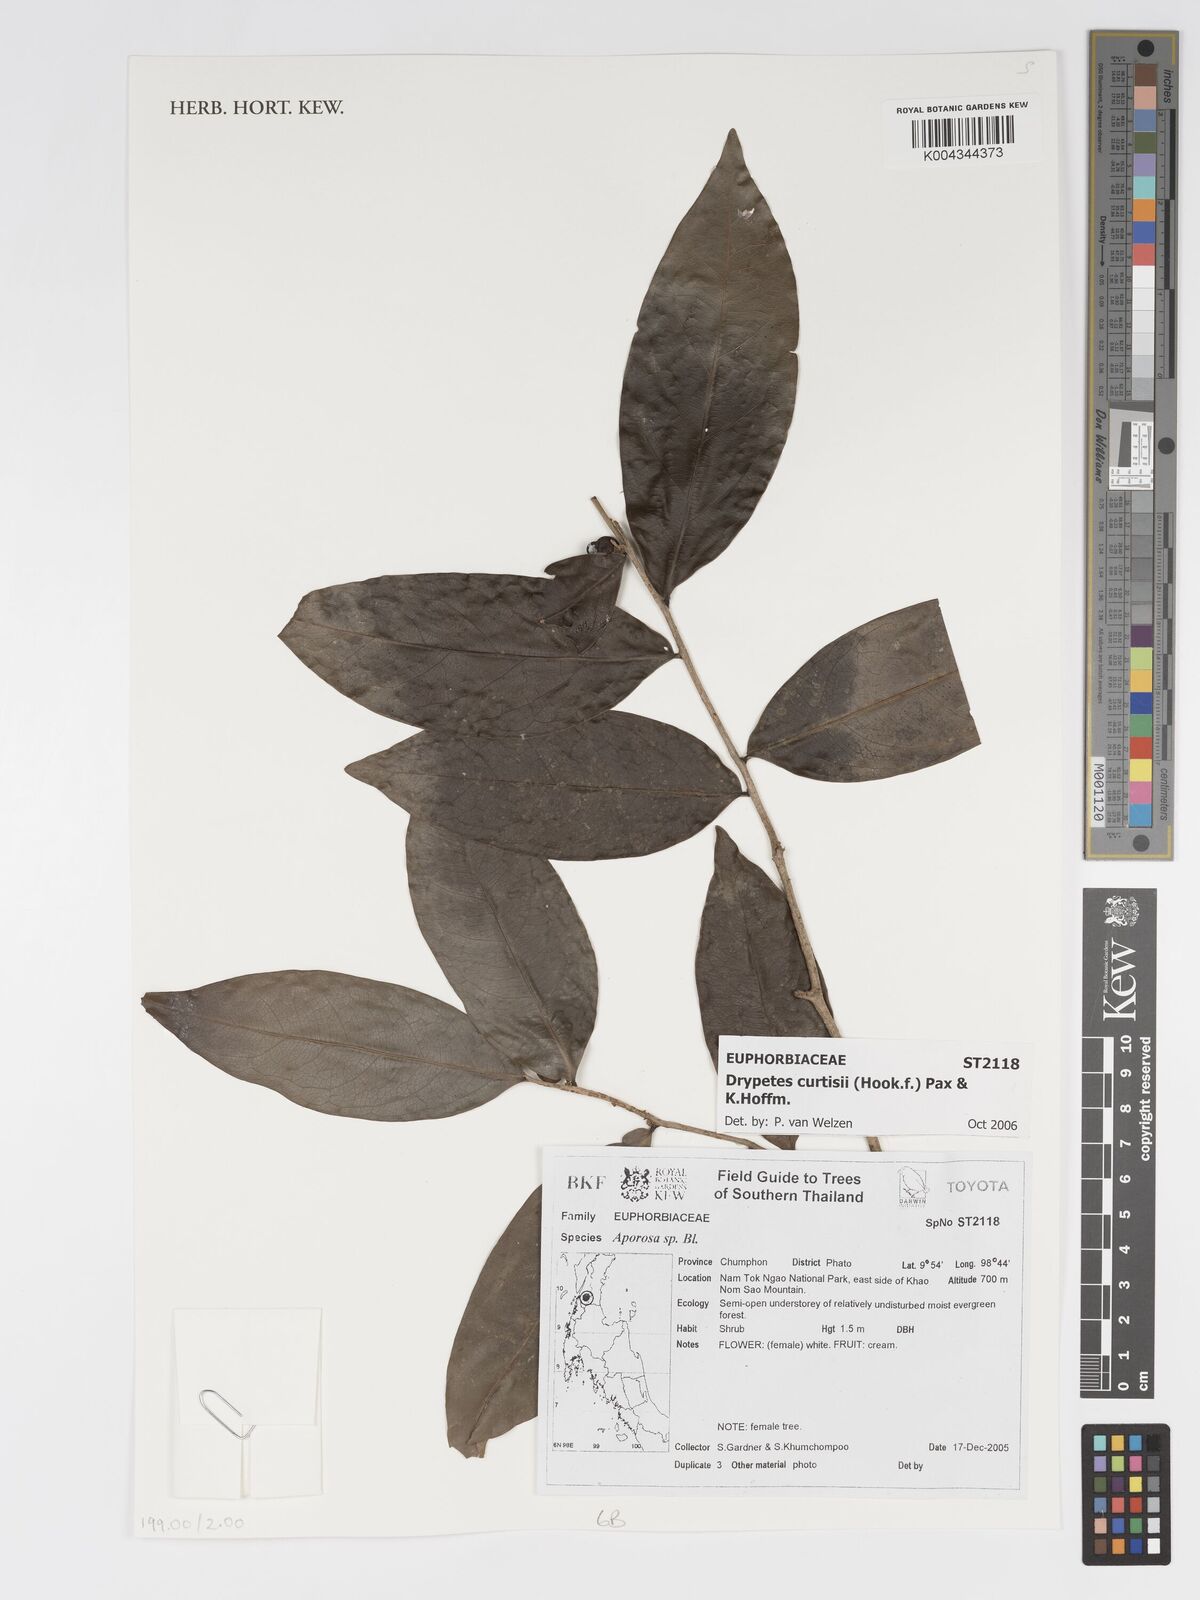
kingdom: Plantae
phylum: Tracheophyta
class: Magnoliopsida
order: Malpighiales
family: Putranjivaceae
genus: Drypetes
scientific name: Drypetes curtisii
